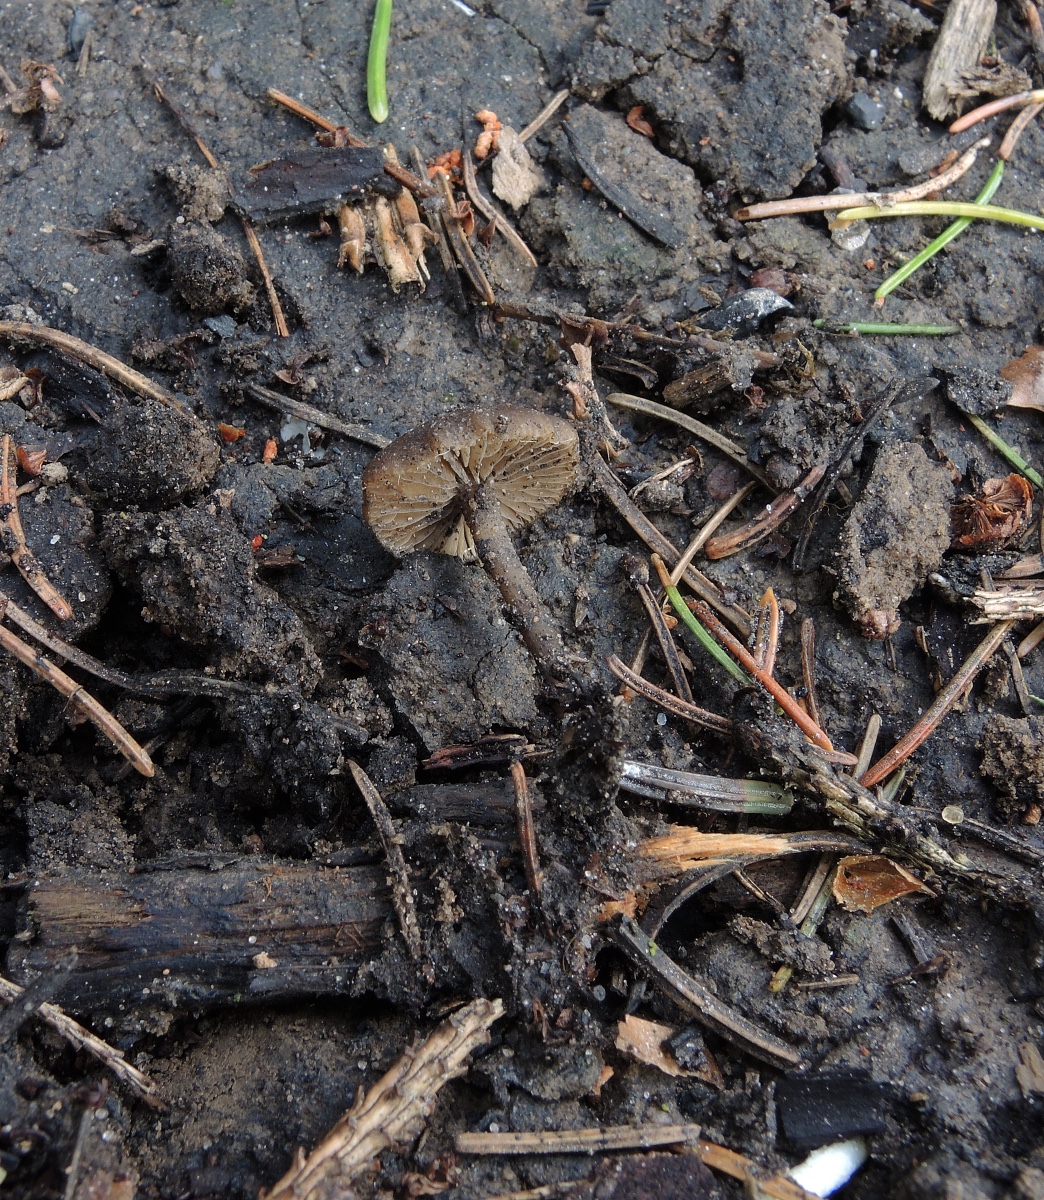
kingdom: Fungi
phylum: Basidiomycota
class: Agaricomycetes
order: Agaricales
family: Lyophyllaceae
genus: Tephrocybe
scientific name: Tephrocybe atrata
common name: brandplet-gråblad
